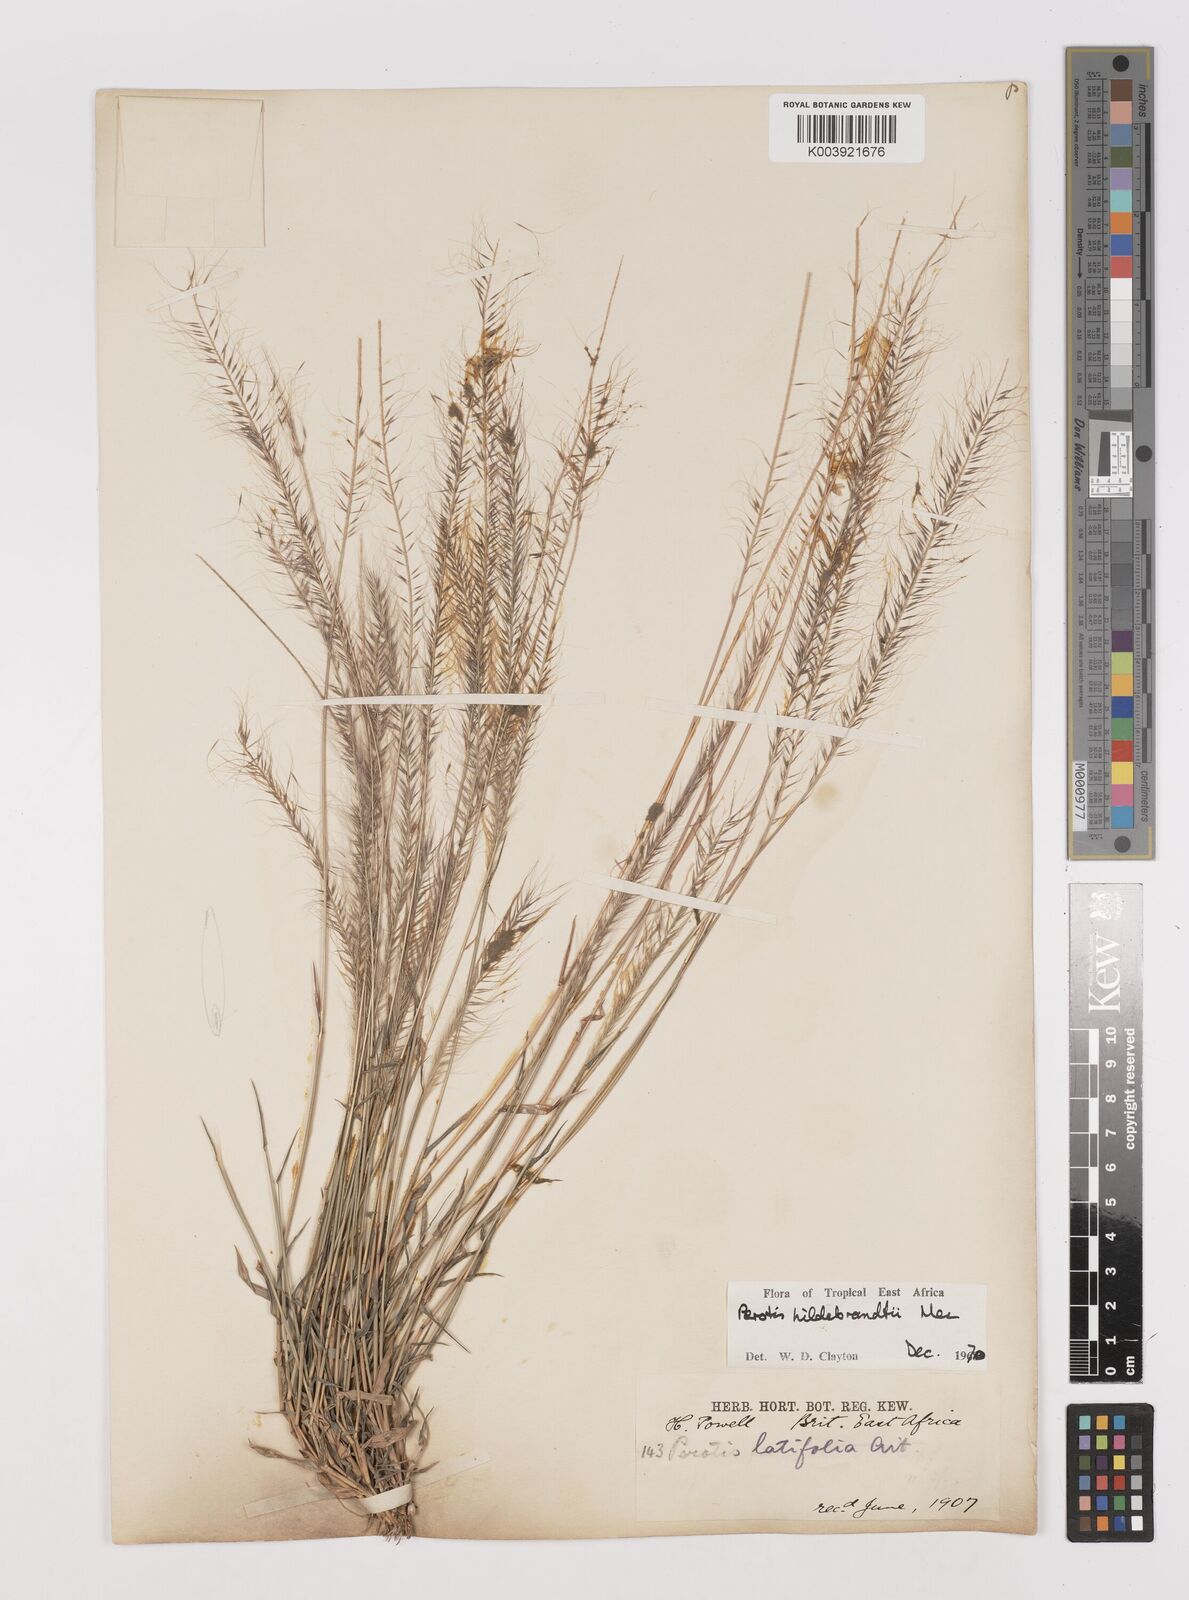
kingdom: Plantae
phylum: Tracheophyta
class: Liliopsida
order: Poales
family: Poaceae
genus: Perotis
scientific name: Perotis hildebrandtii
